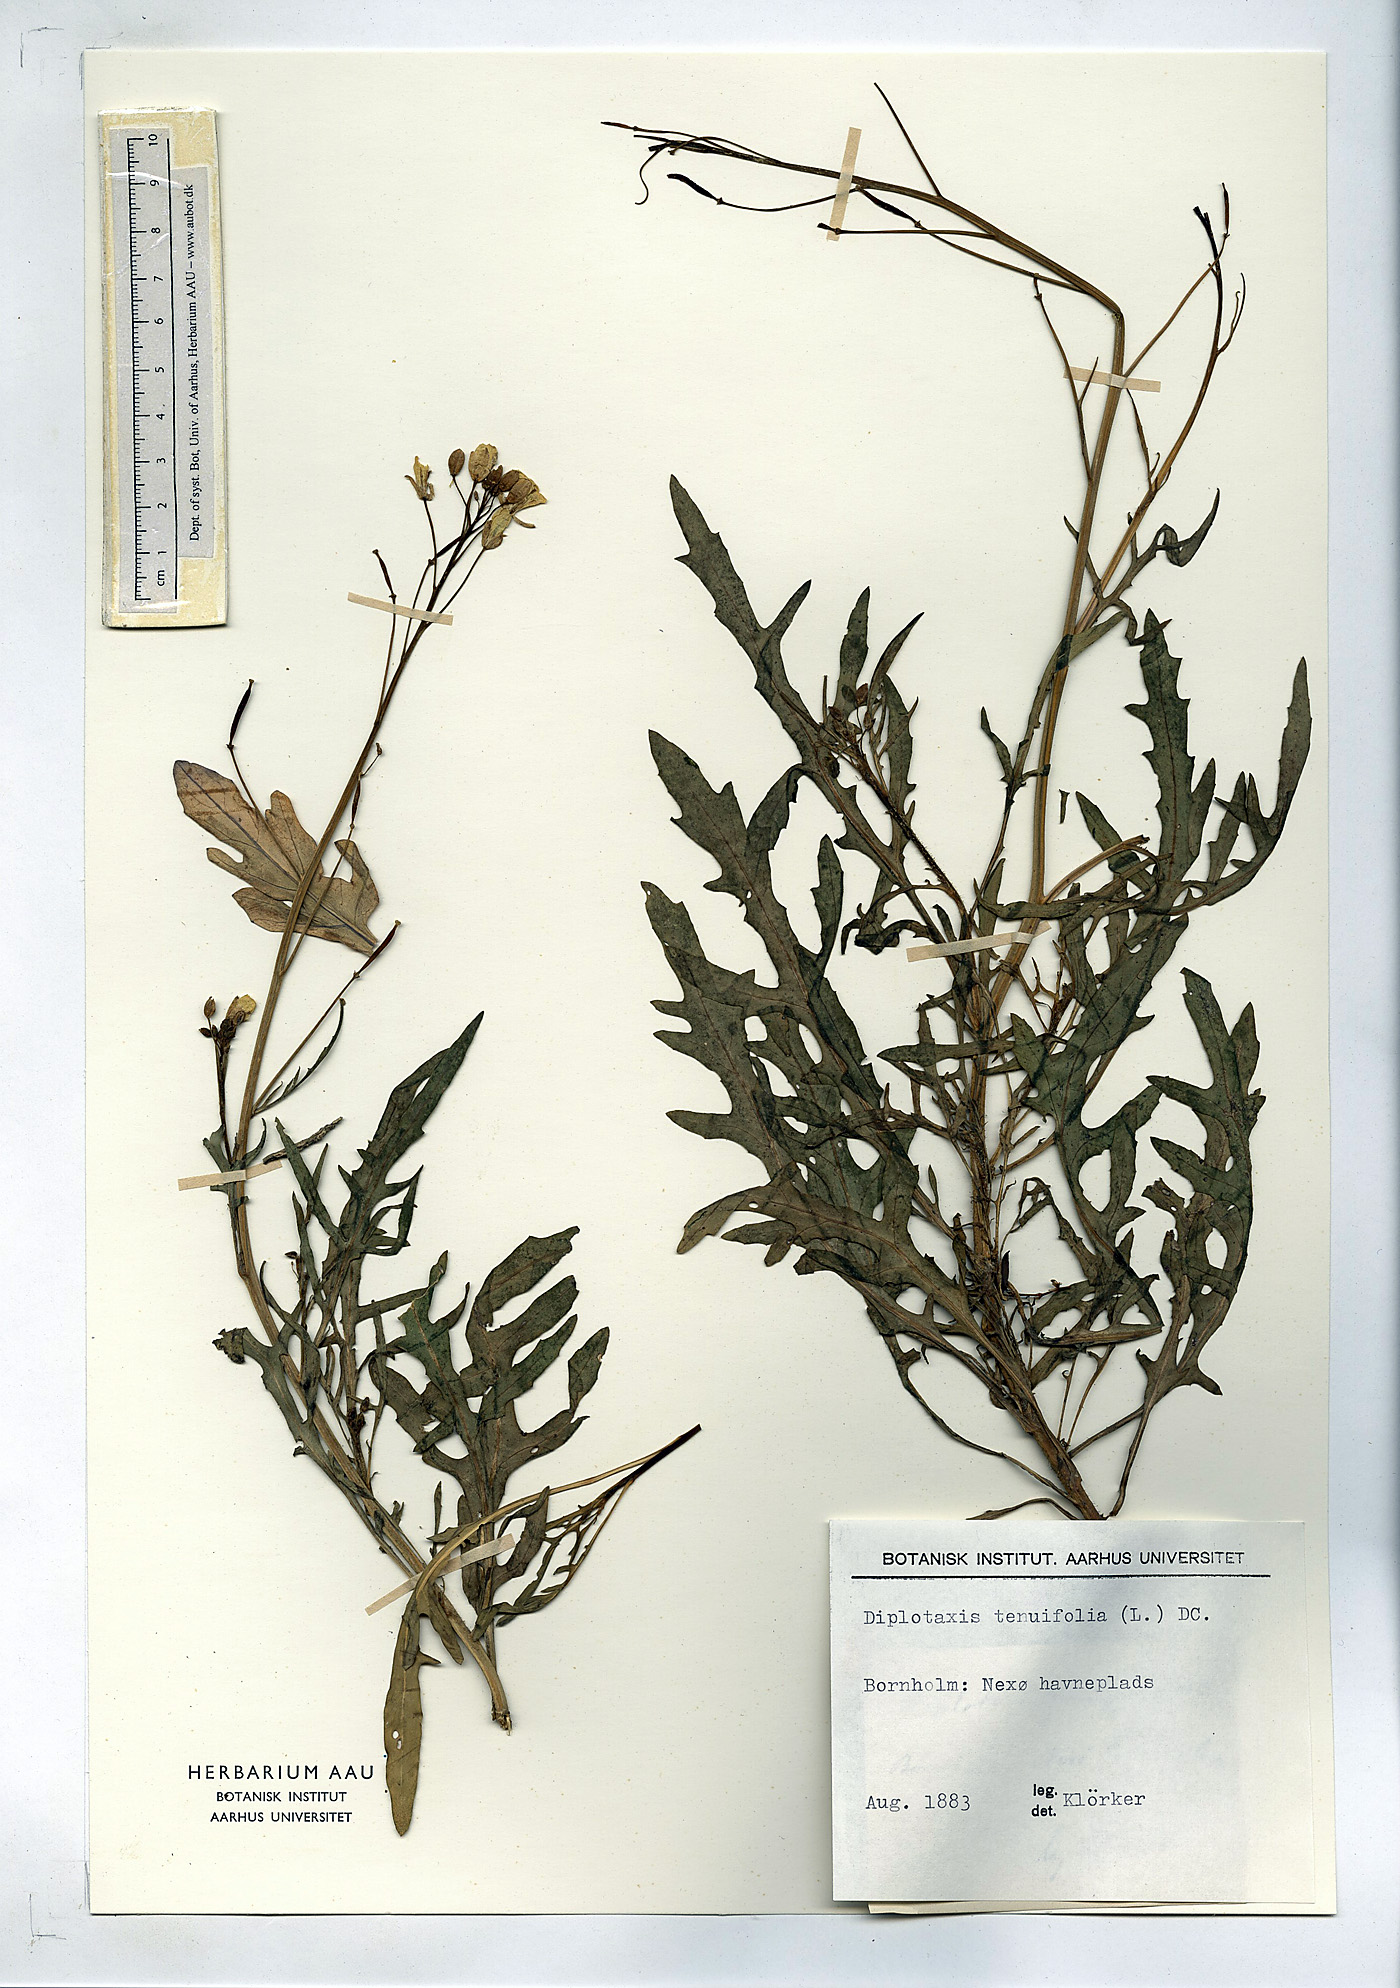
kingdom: Plantae
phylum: Tracheophyta
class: Magnoliopsida
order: Brassicales
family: Brassicaceae
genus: Diplotaxis
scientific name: Diplotaxis tenuifolia
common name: Perennial wall-rocket
